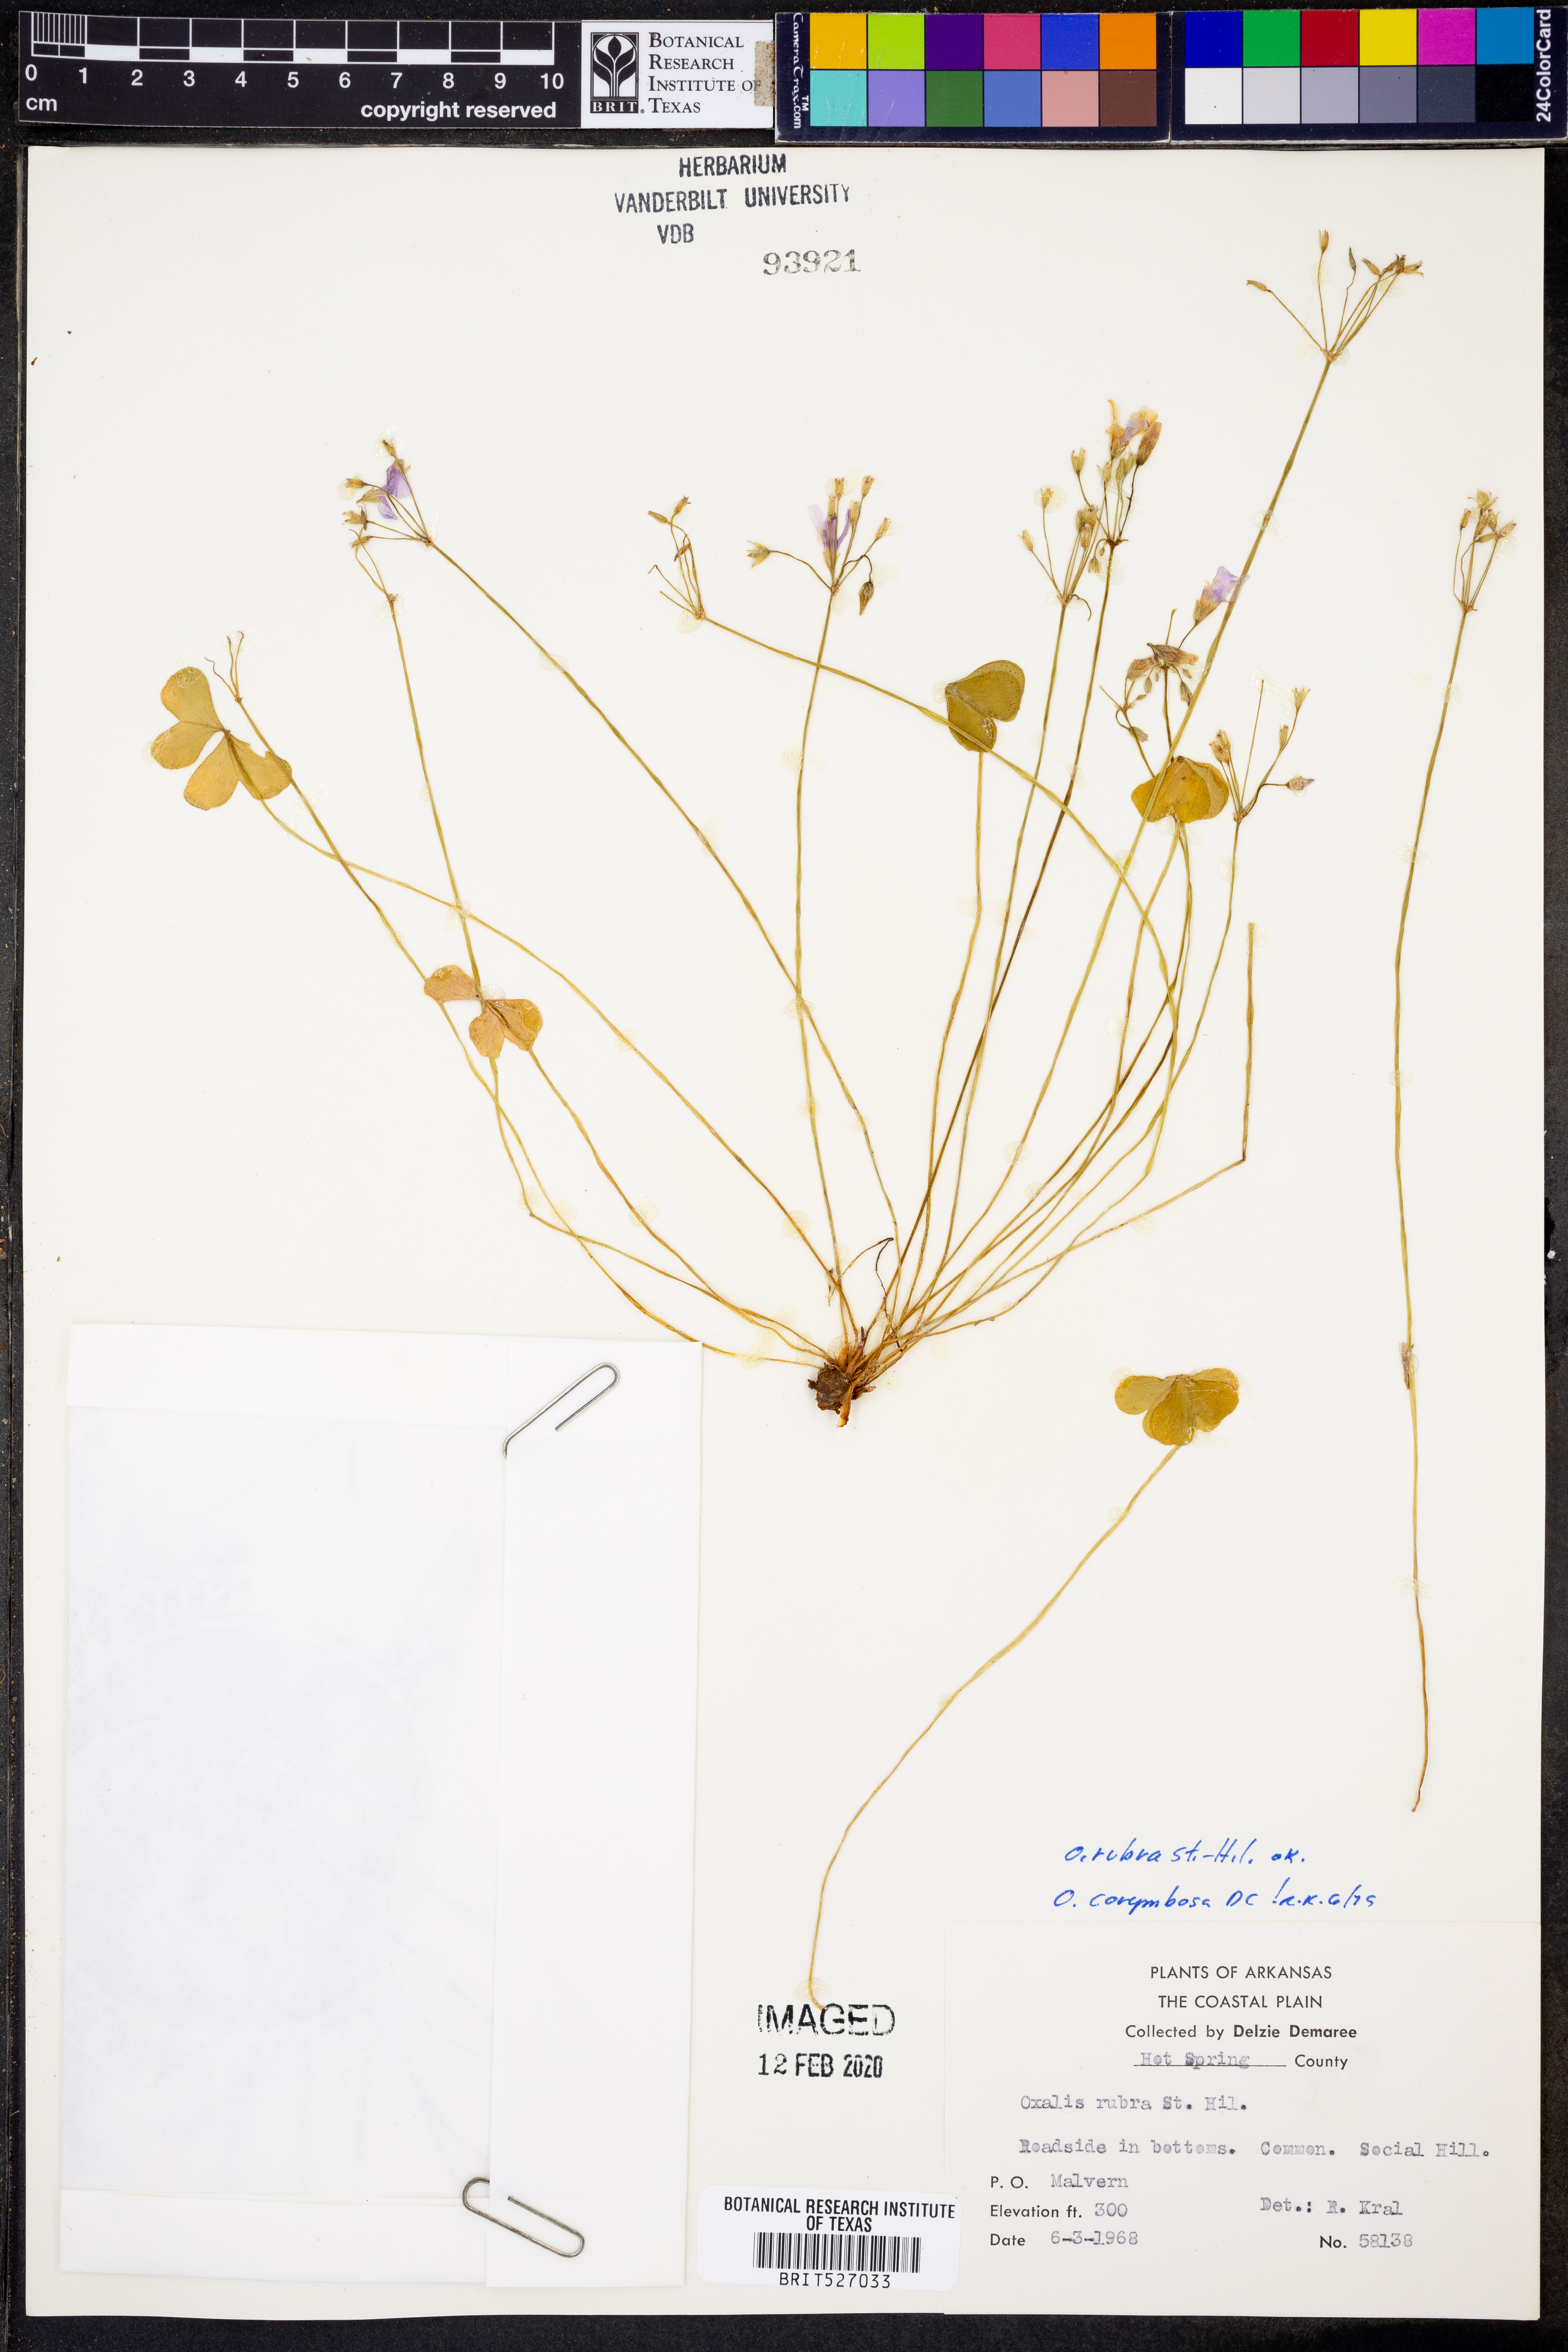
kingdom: Plantae
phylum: Tracheophyta
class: Magnoliopsida
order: Oxalidales
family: Oxalidaceae
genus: Oxalis
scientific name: Oxalis articulata
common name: Pink-sorrel
